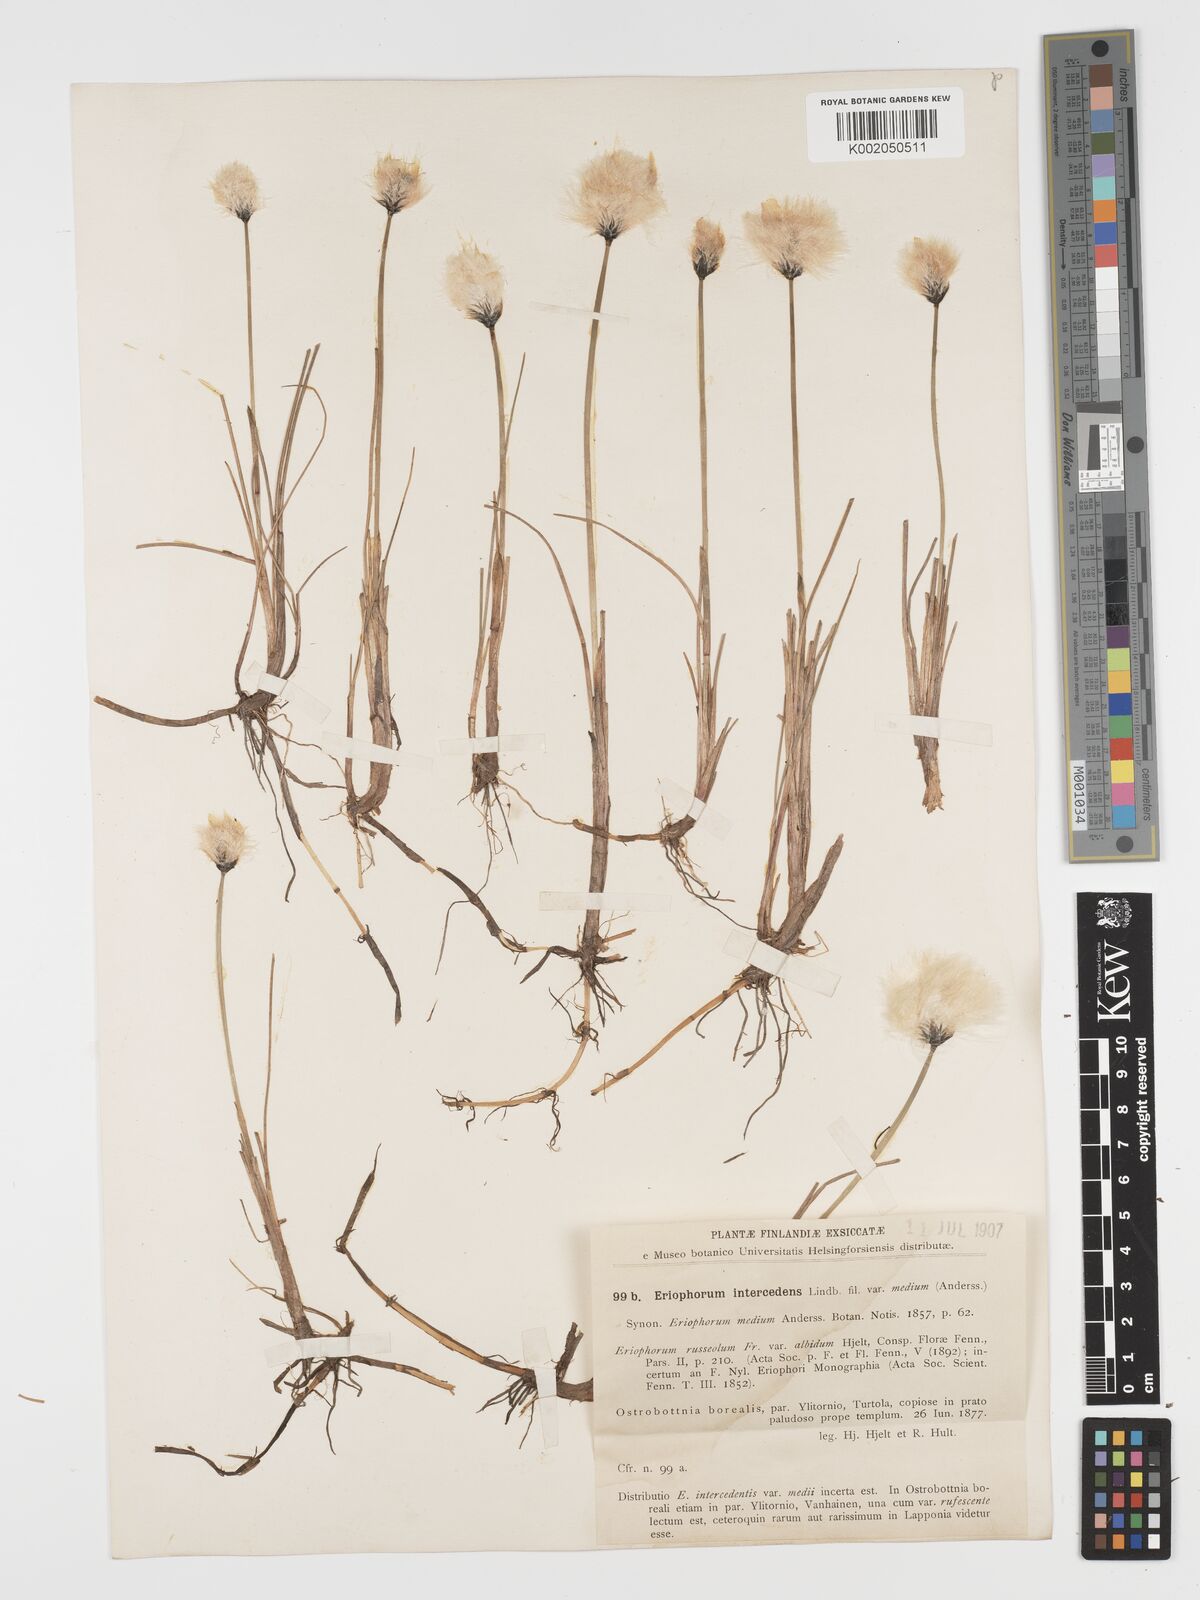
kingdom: Plantae
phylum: Tracheophyta
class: Liliopsida
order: Poales
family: Cyperaceae
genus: Eriophorum
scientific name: Eriophorum medium
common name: Intermediate cottongrass
